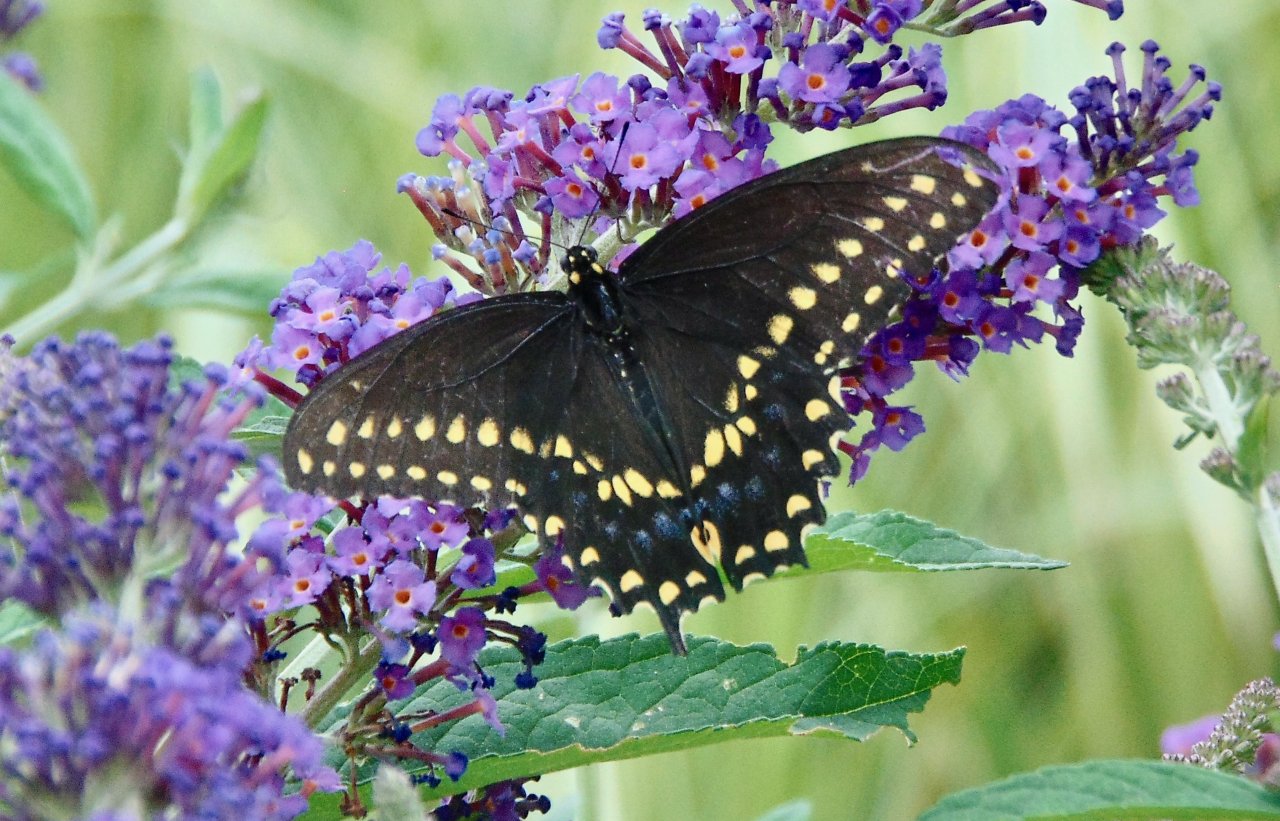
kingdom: Animalia
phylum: Arthropoda
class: Insecta
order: Lepidoptera
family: Papilionidae
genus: Papilio
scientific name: Papilio polyxenes
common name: Black Swallowtail
